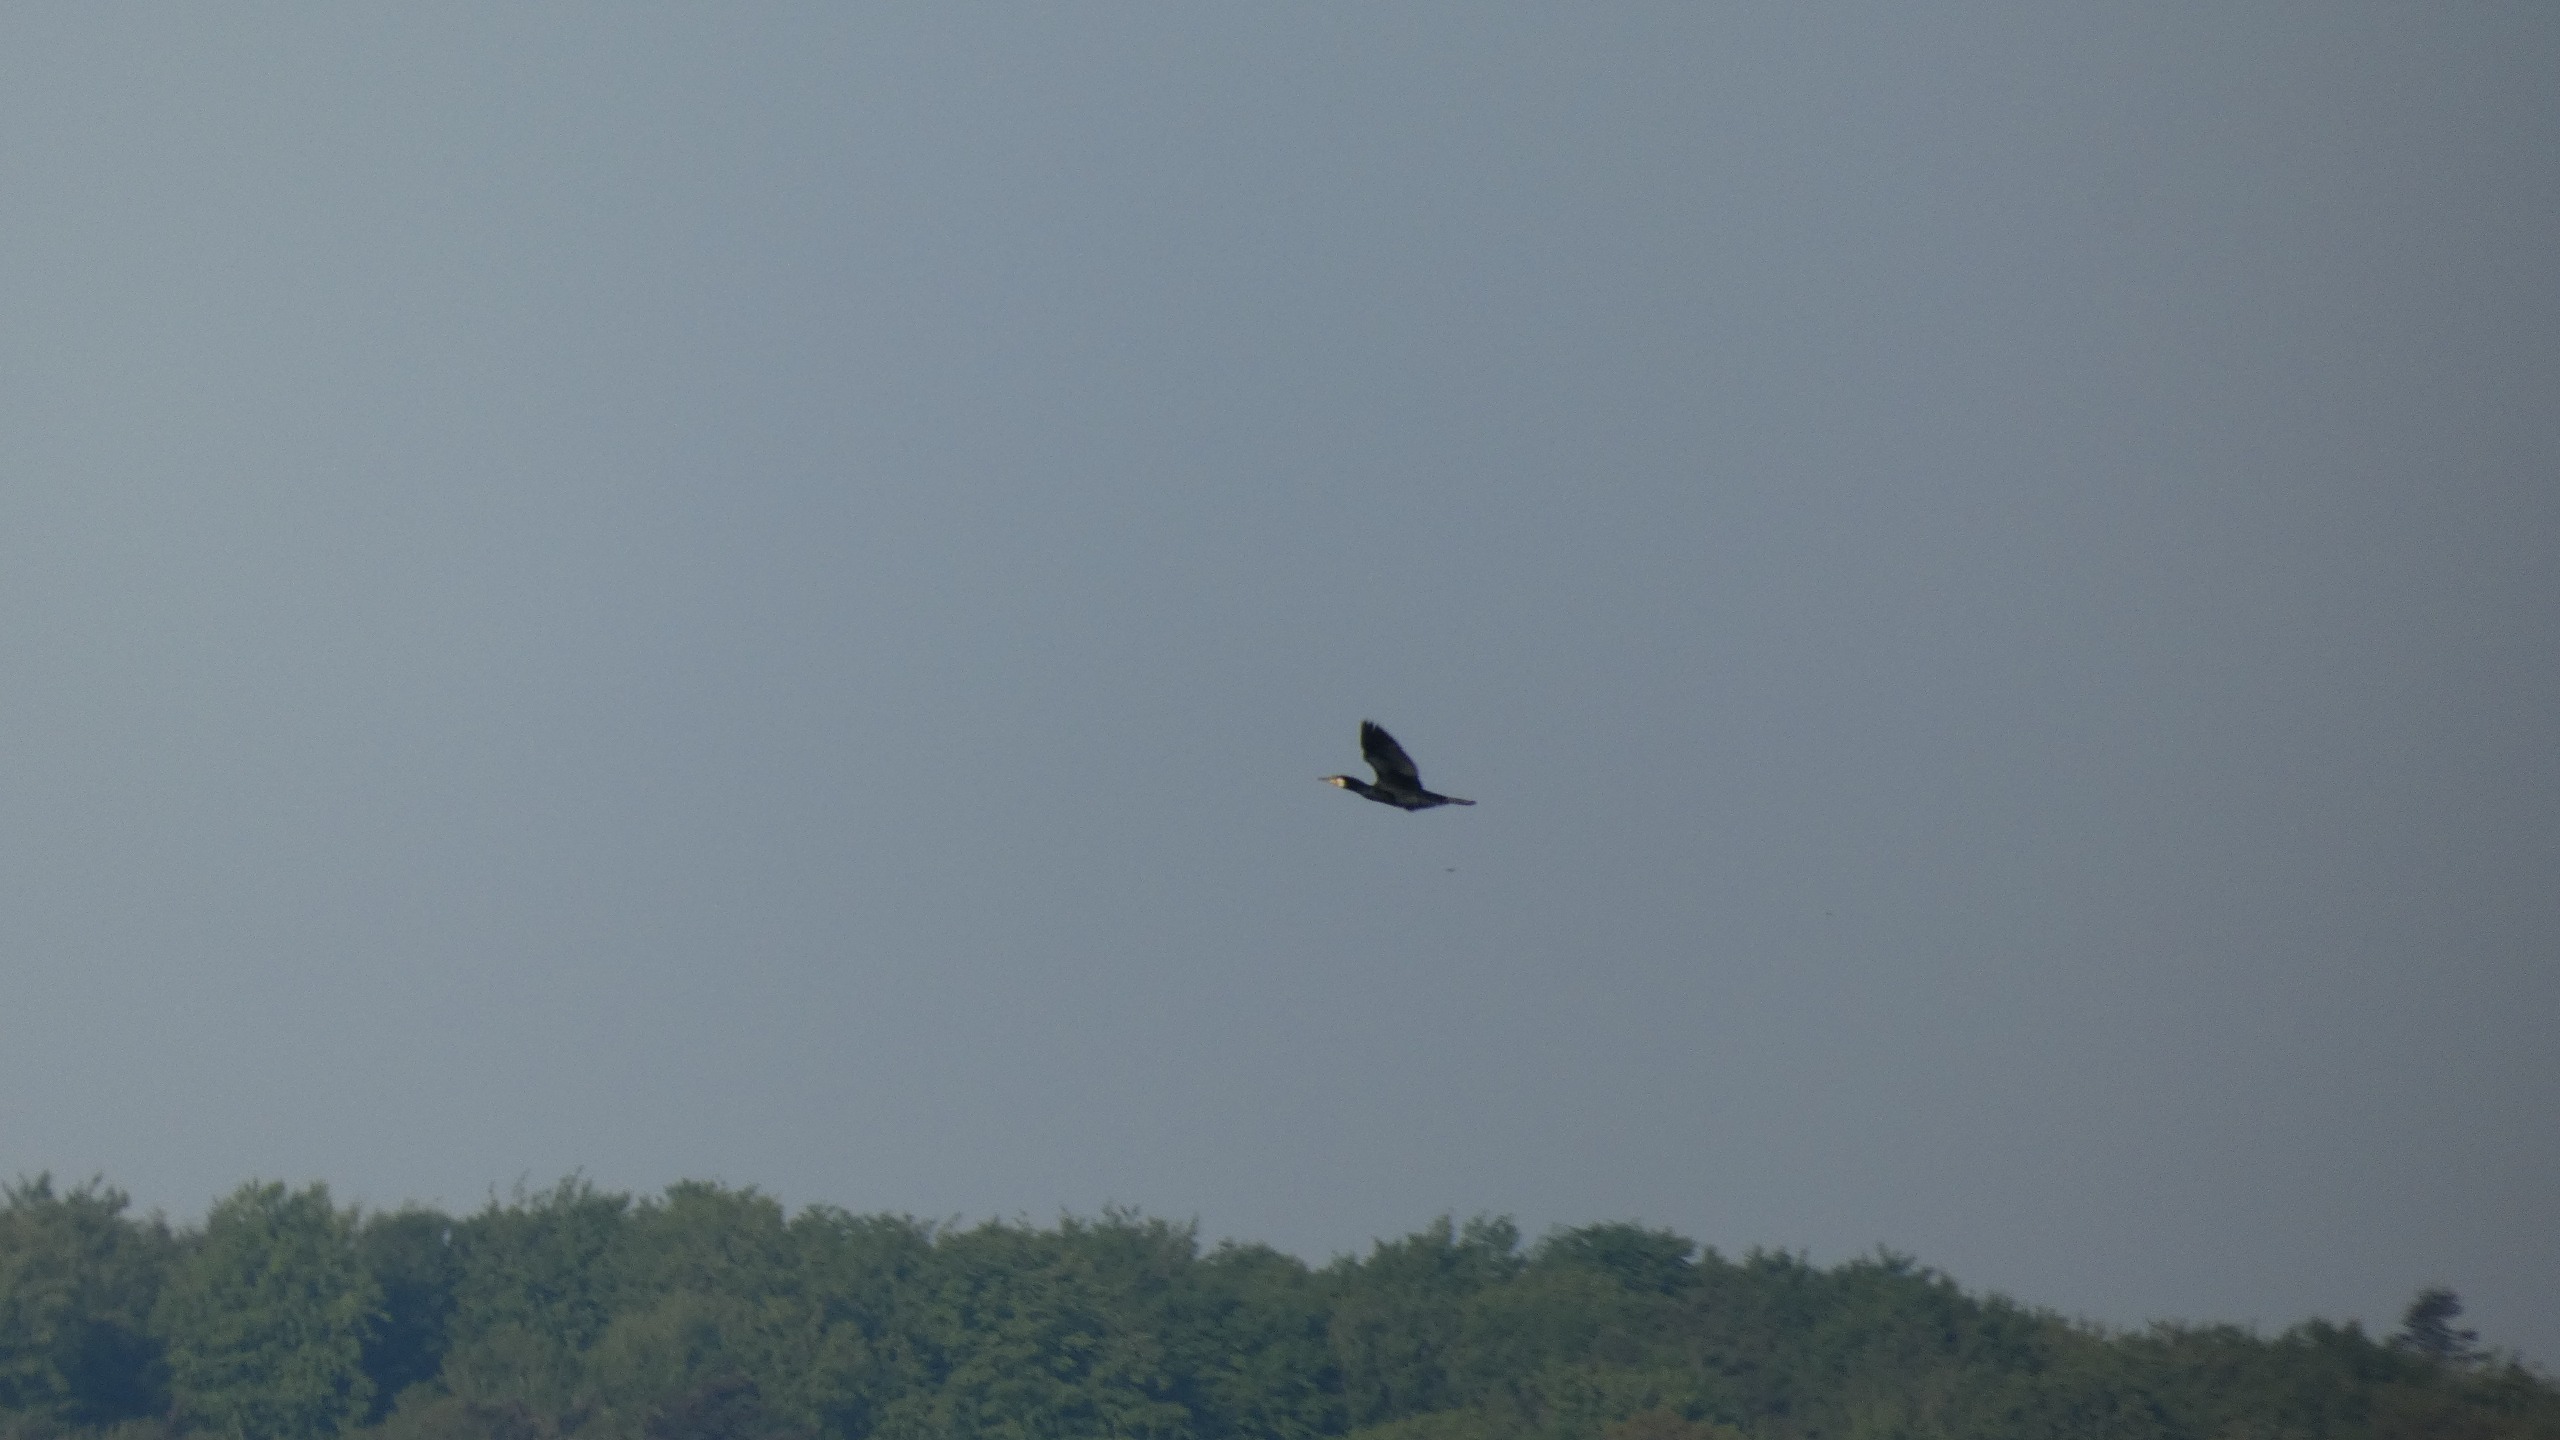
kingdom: Animalia
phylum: Chordata
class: Aves
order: Suliformes
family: Phalacrocoracidae
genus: Phalacrocorax
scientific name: Phalacrocorax carbo
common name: Skarv
